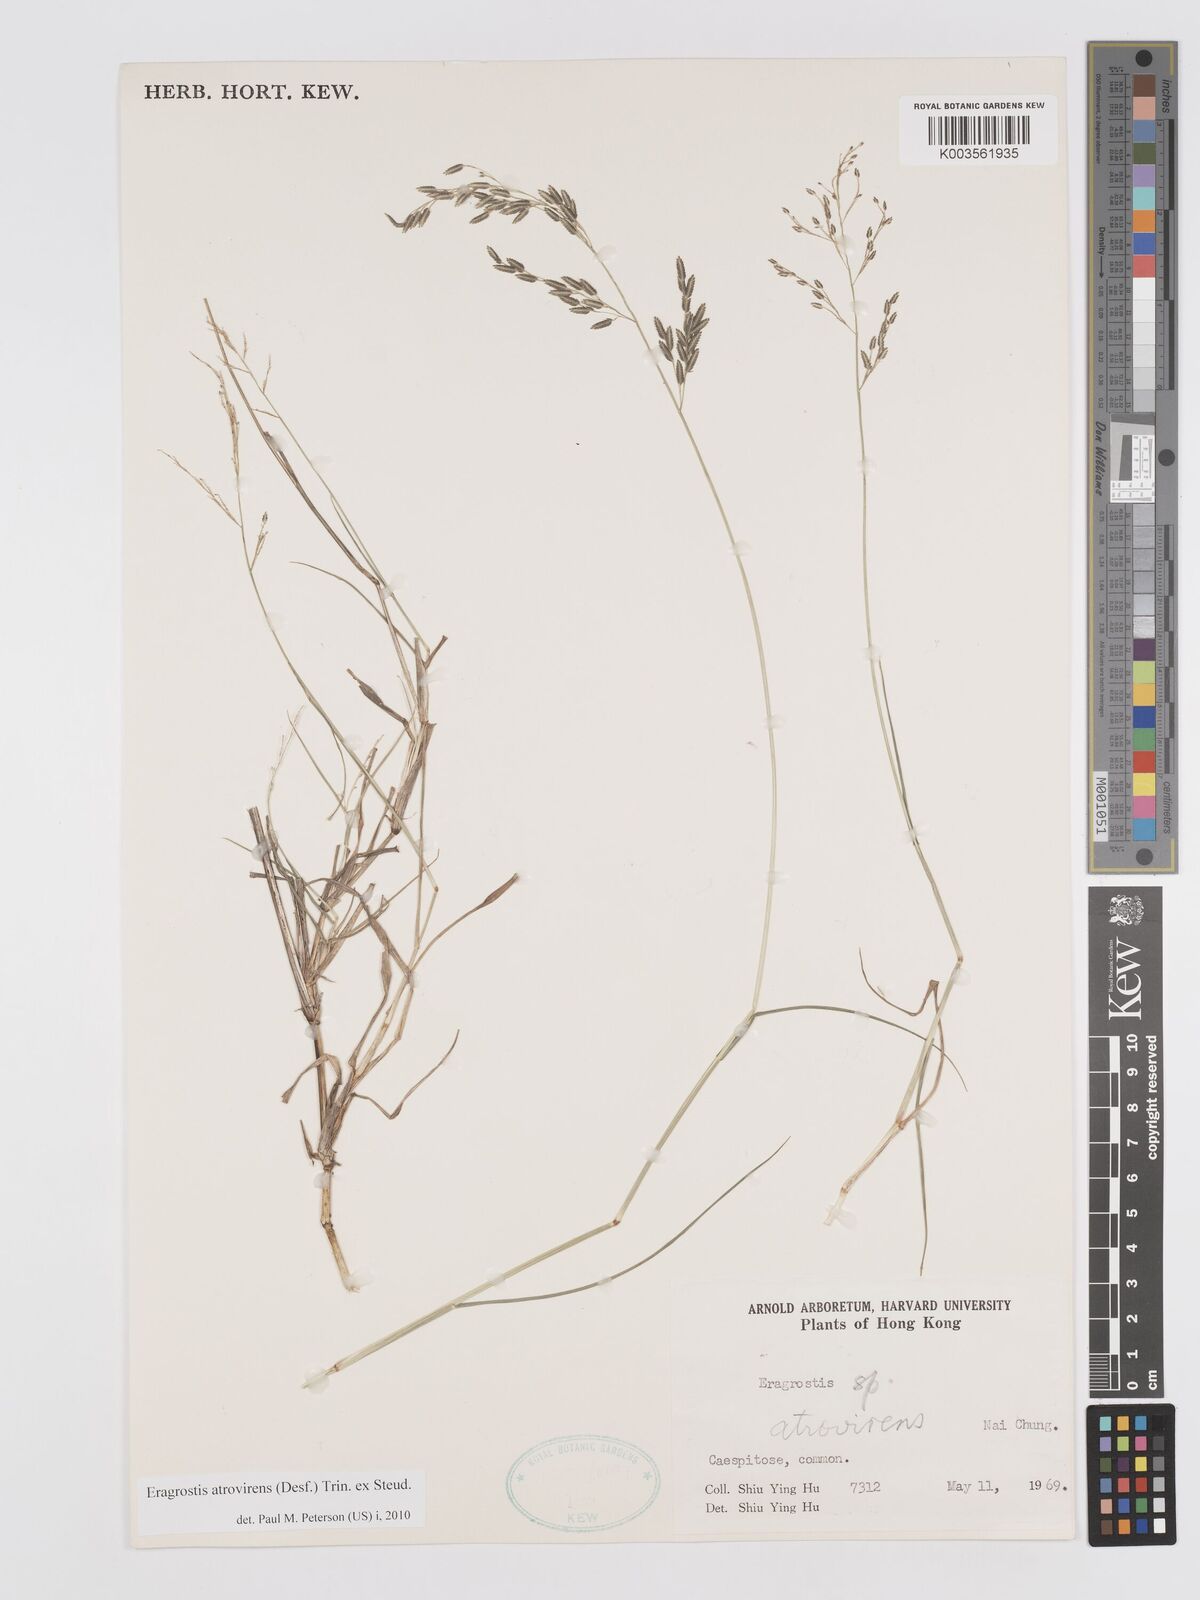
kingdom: Plantae
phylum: Tracheophyta
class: Liliopsida
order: Poales
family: Poaceae
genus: Eragrostis
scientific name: Eragrostis atrovirens
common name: Thalia lovegrass
